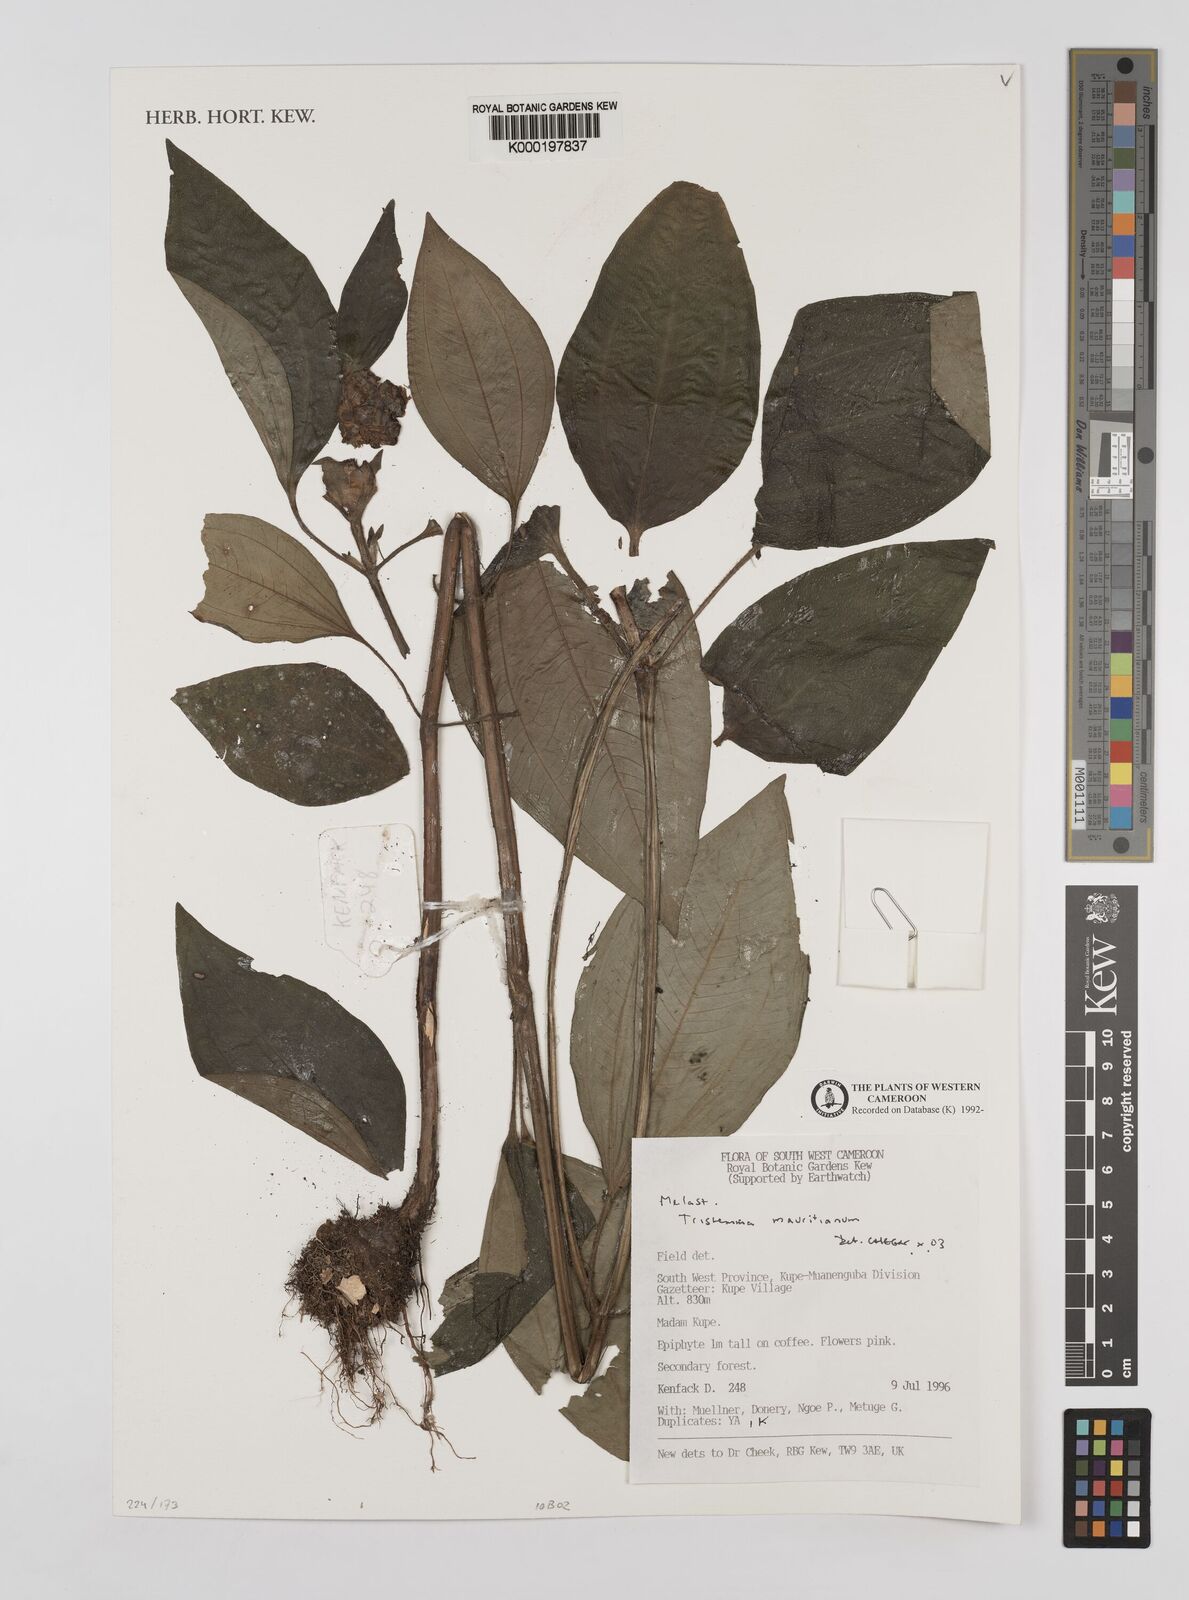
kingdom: Plantae
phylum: Tracheophyta
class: Magnoliopsida
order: Myrtales
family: Melastomataceae
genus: Tristemma
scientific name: Tristemma
